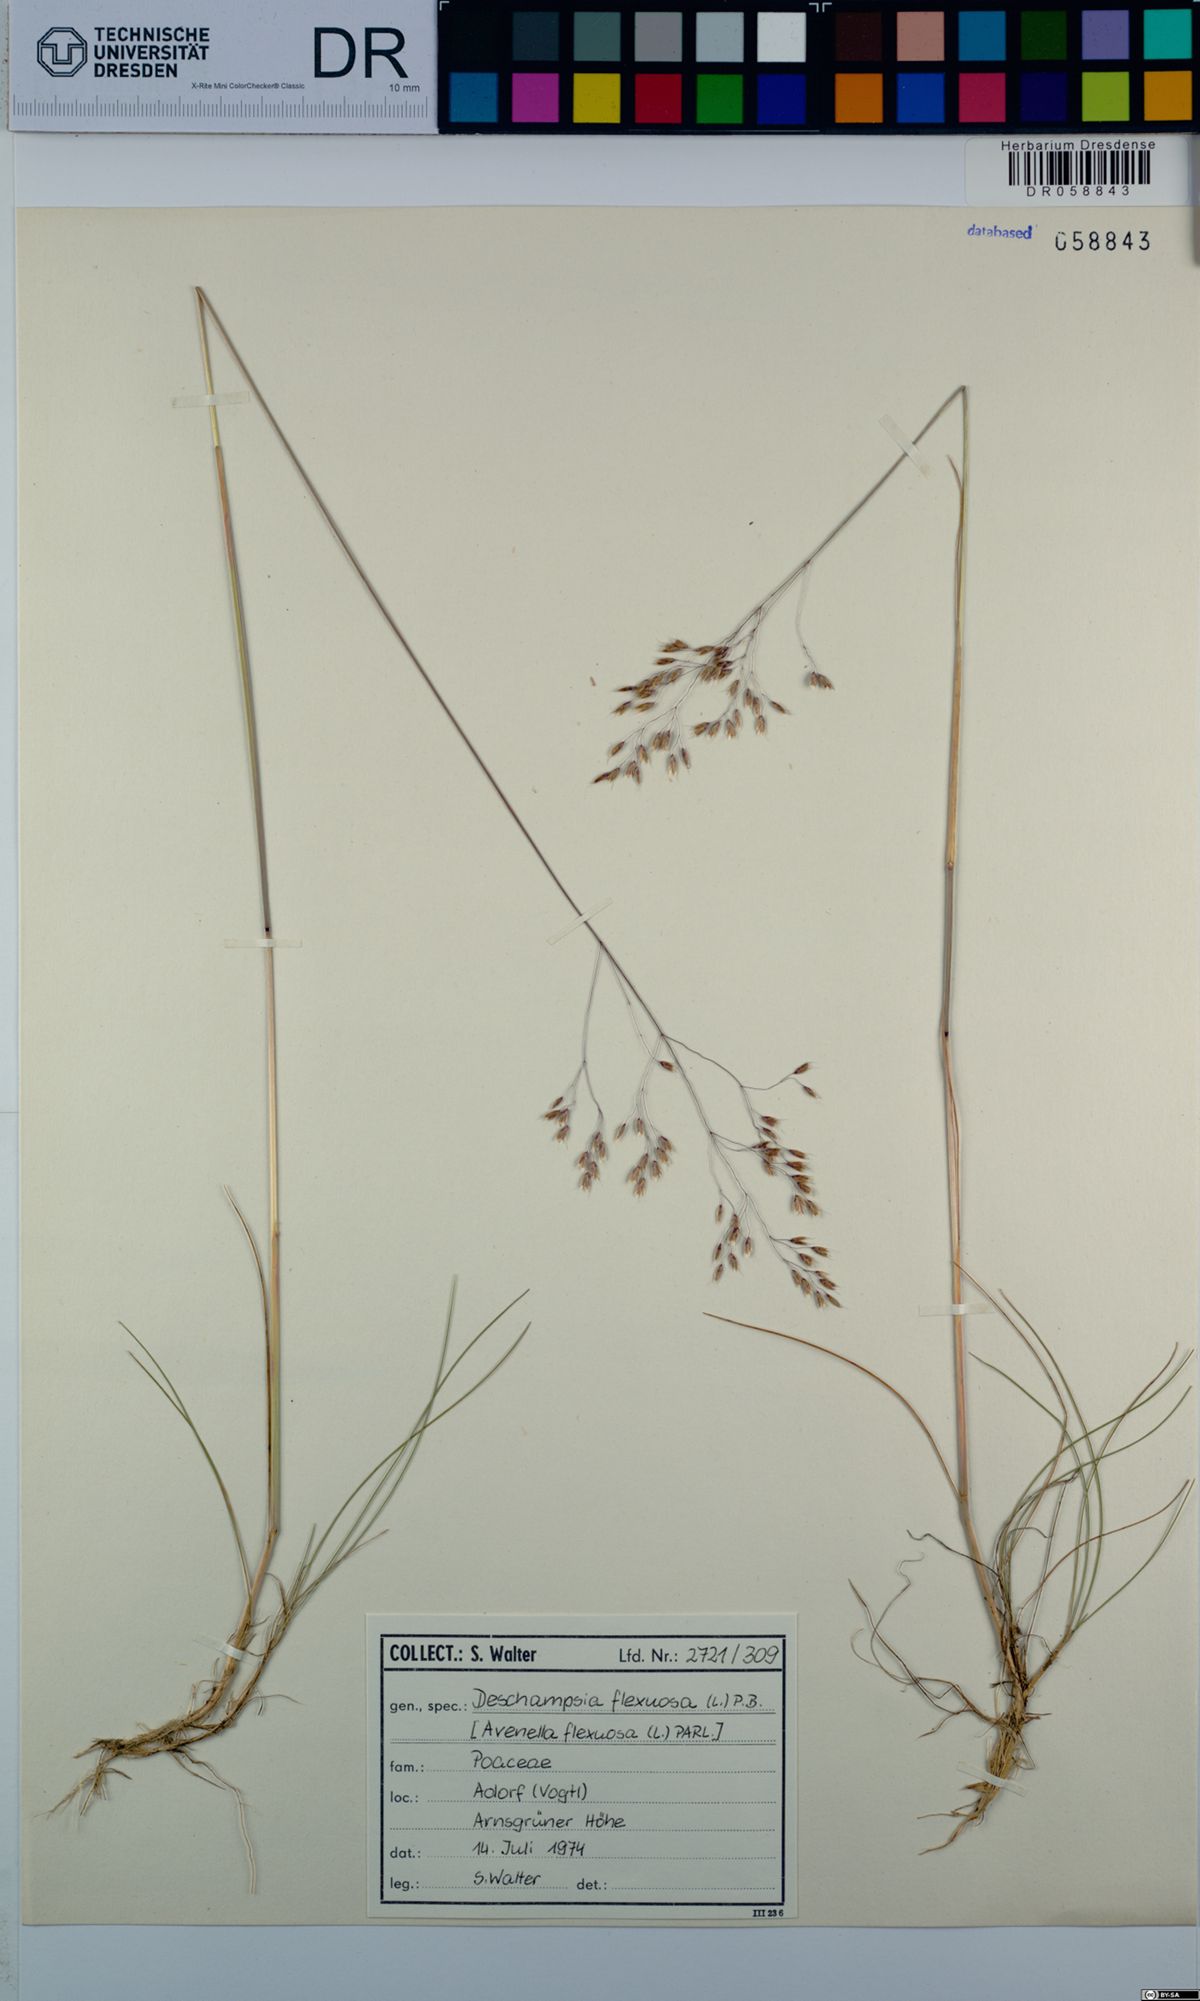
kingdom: Plantae
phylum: Tracheophyta
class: Liliopsida
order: Poales
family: Poaceae
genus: Avenella
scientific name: Avenella flexuosa
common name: Wavy hairgrass
